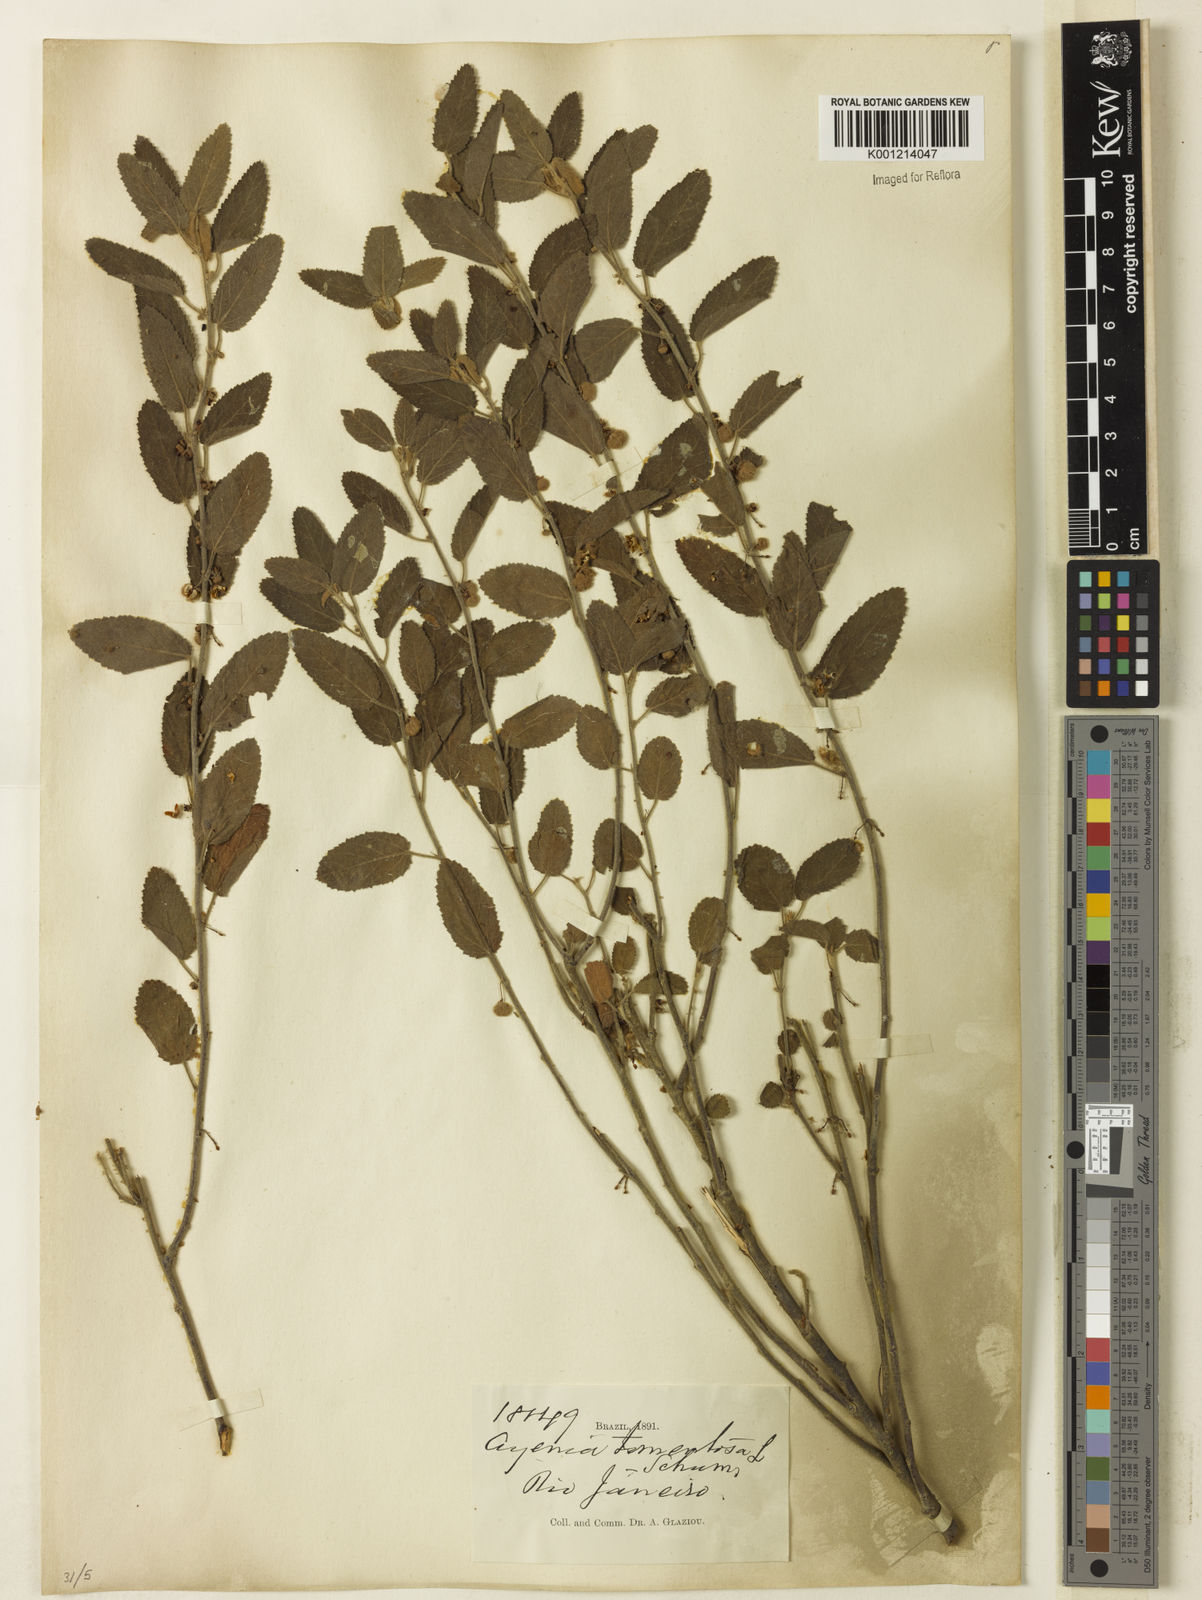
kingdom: Plantae
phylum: Tracheophyta
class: Magnoliopsida
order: Malvales
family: Malvaceae
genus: Ayenia
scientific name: Ayenia tomentosa
